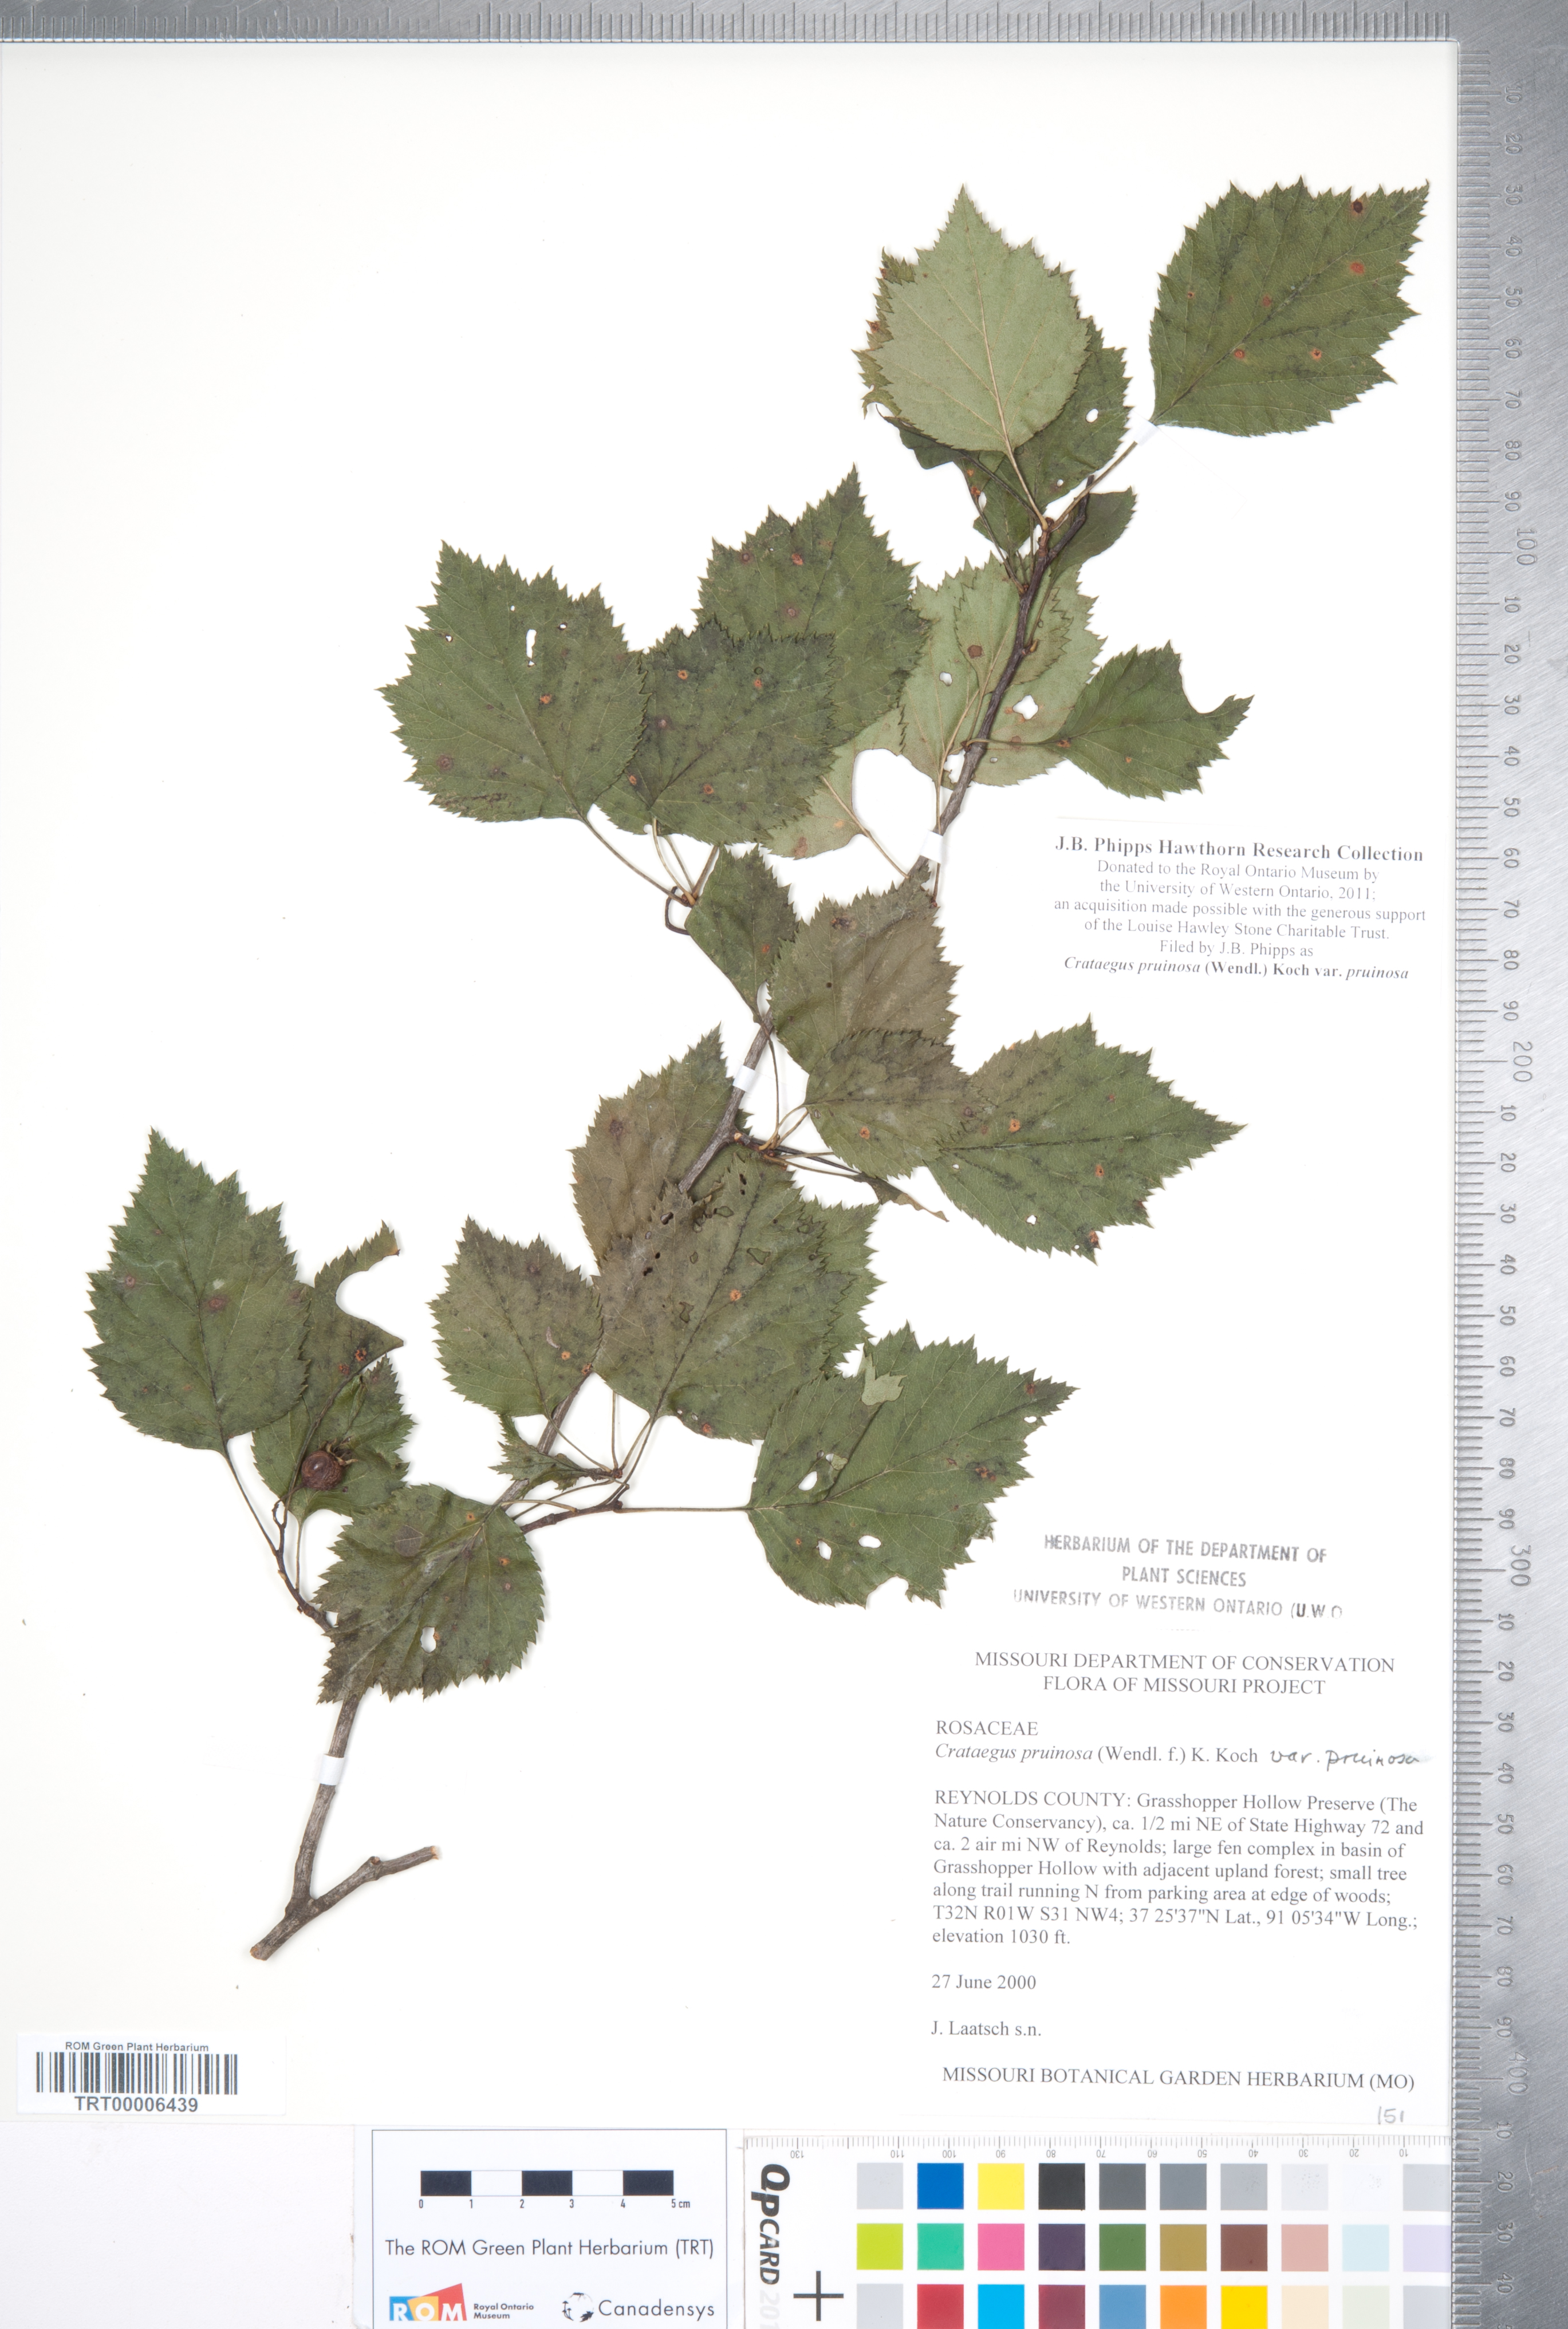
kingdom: Plantae
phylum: Tracheophyta
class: Magnoliopsida
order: Rosales
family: Rosaceae
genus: Crataegus
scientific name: Crataegus pruinosa
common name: Waxy-fruit hawthorn
